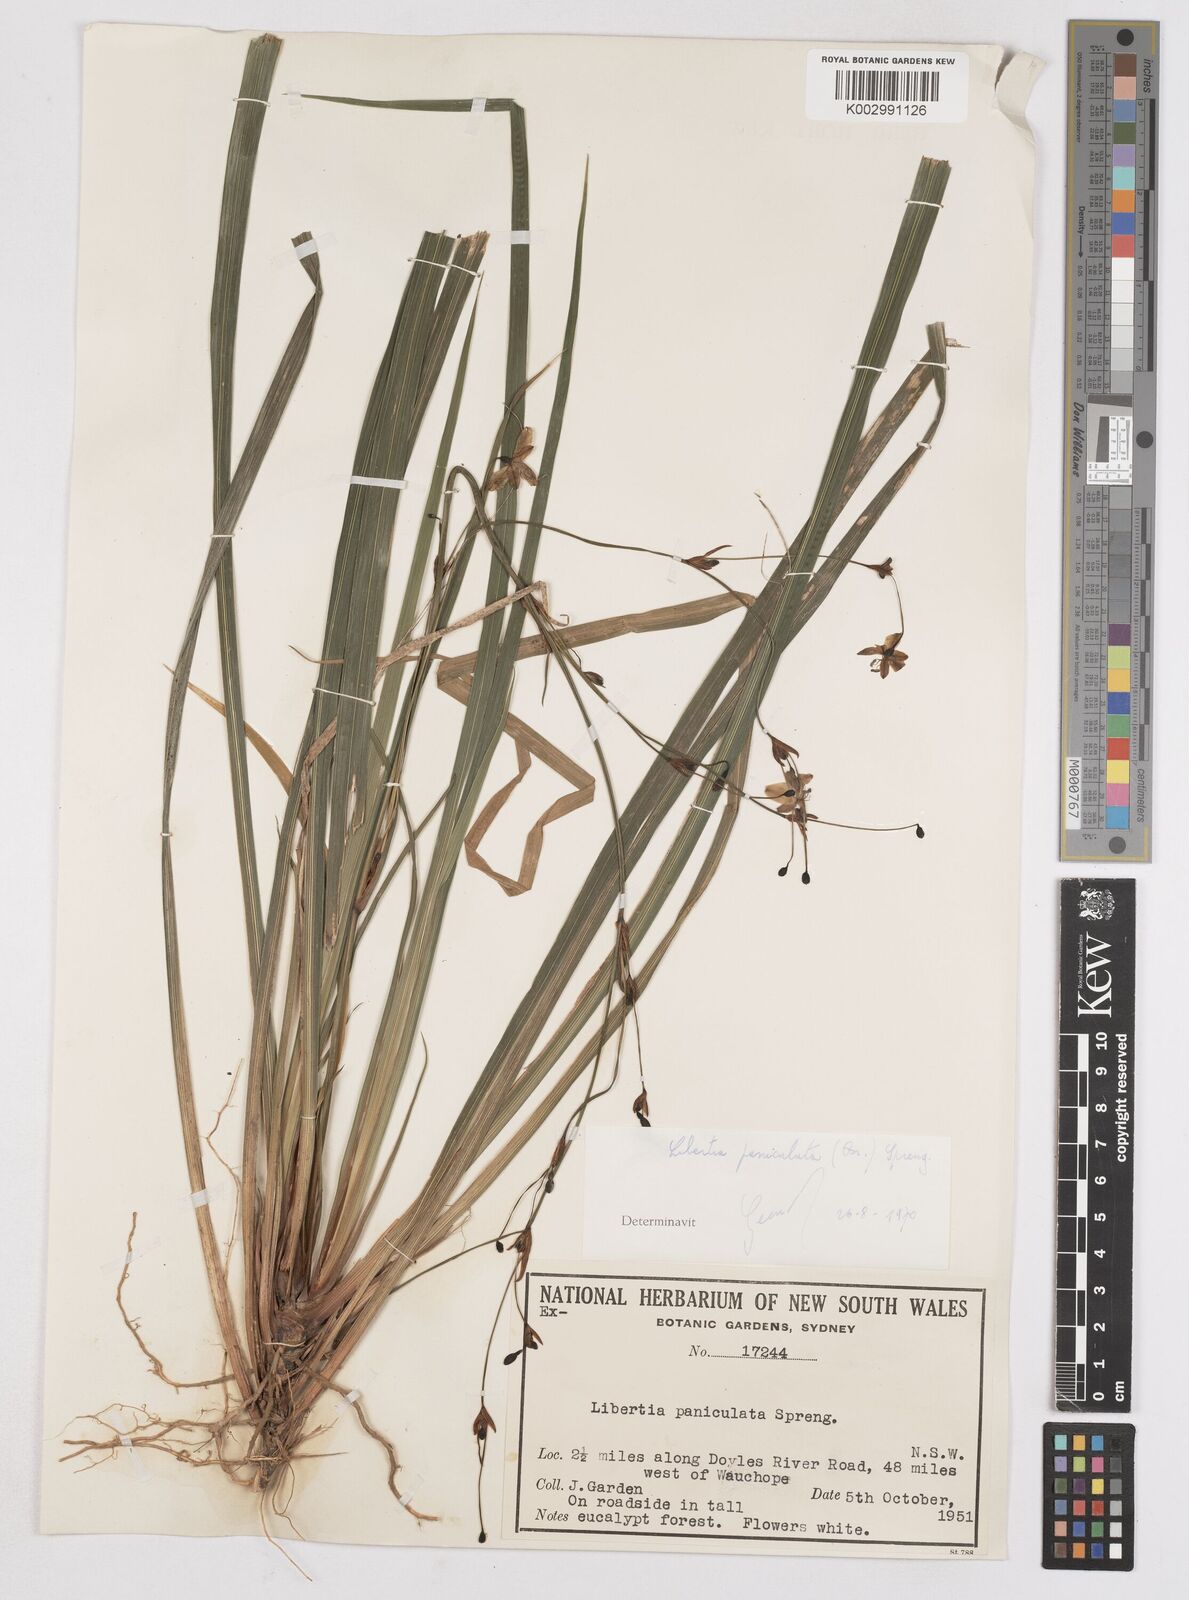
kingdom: Plantae
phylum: Tracheophyta
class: Liliopsida
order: Asparagales
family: Iridaceae
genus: Libertia
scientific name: Libertia paniculata
